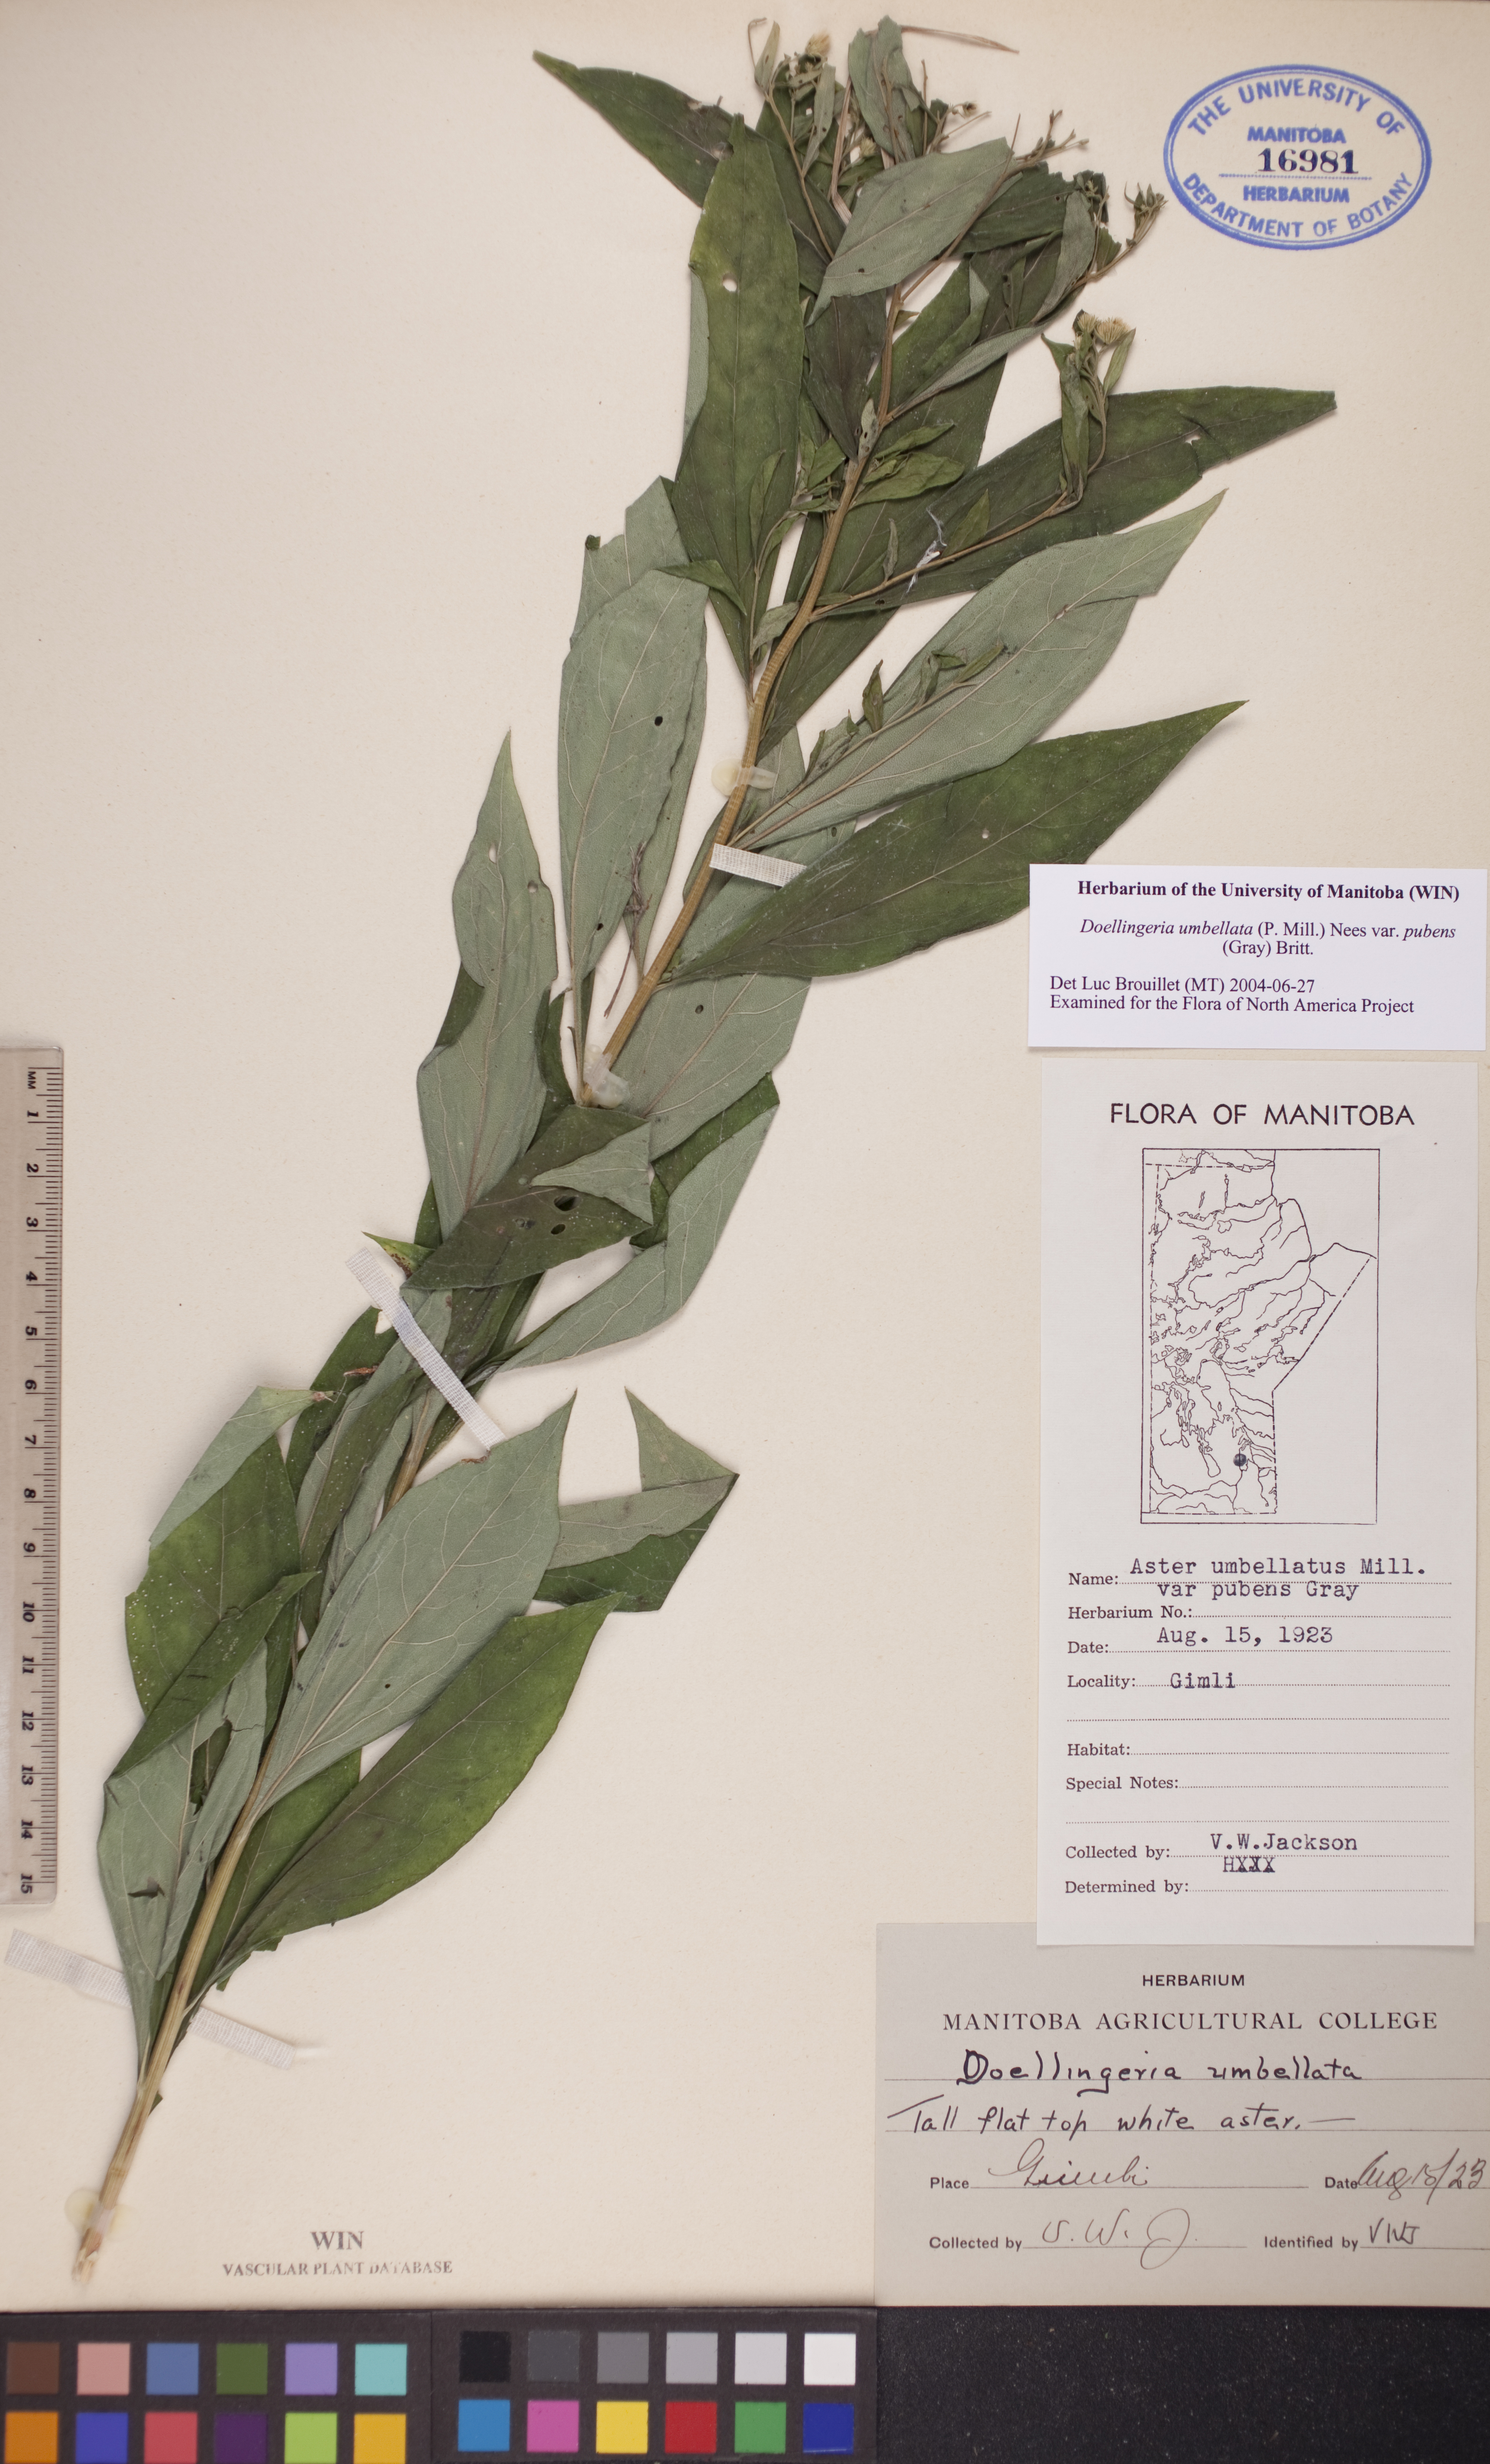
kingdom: Plantae
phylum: Tracheophyta
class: Magnoliopsida
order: Asterales
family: Asteraceae
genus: Doellingeria
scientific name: Doellingeria umbellata
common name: Flat-top white aster
